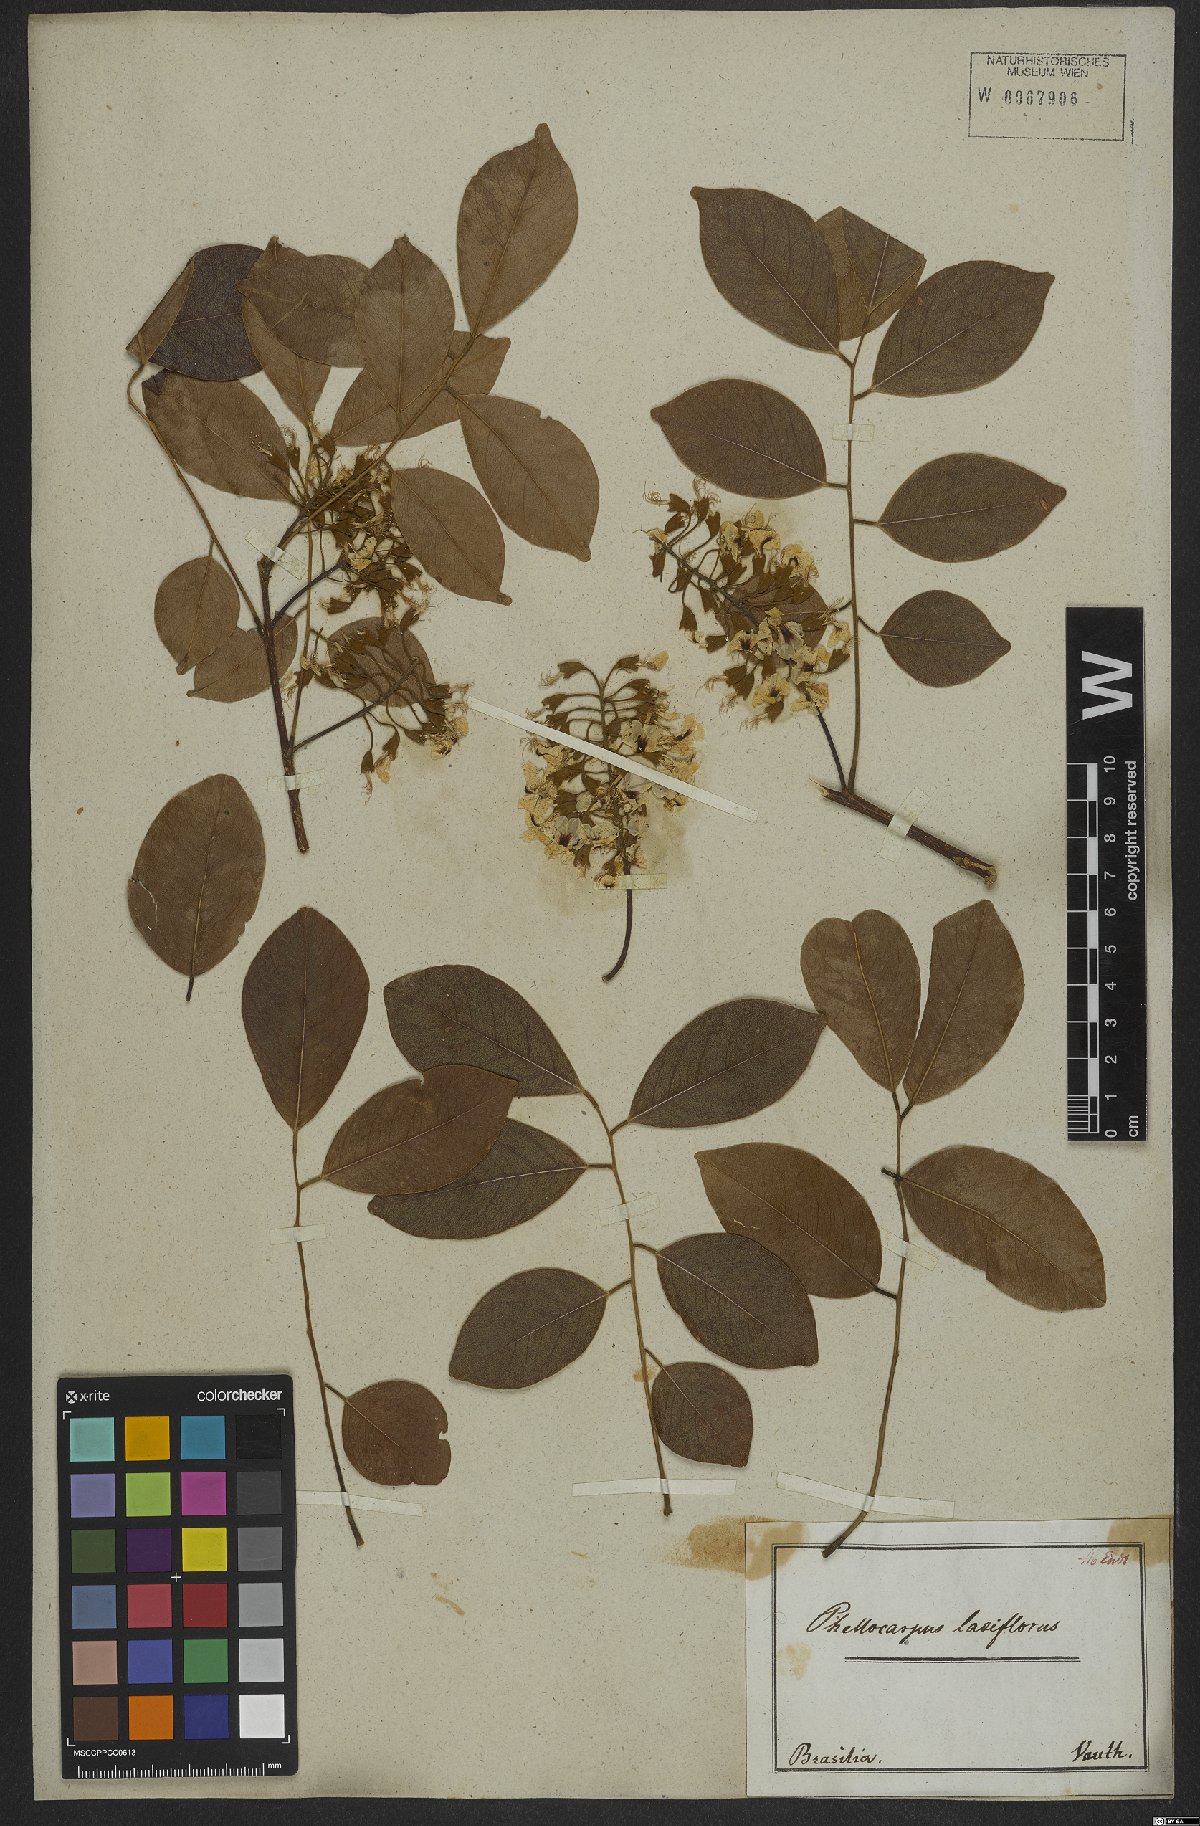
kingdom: Plantae
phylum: Tracheophyta
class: Magnoliopsida
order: Fabales
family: Fabaceae
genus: Pterocarpus
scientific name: Pterocarpus rohrii
